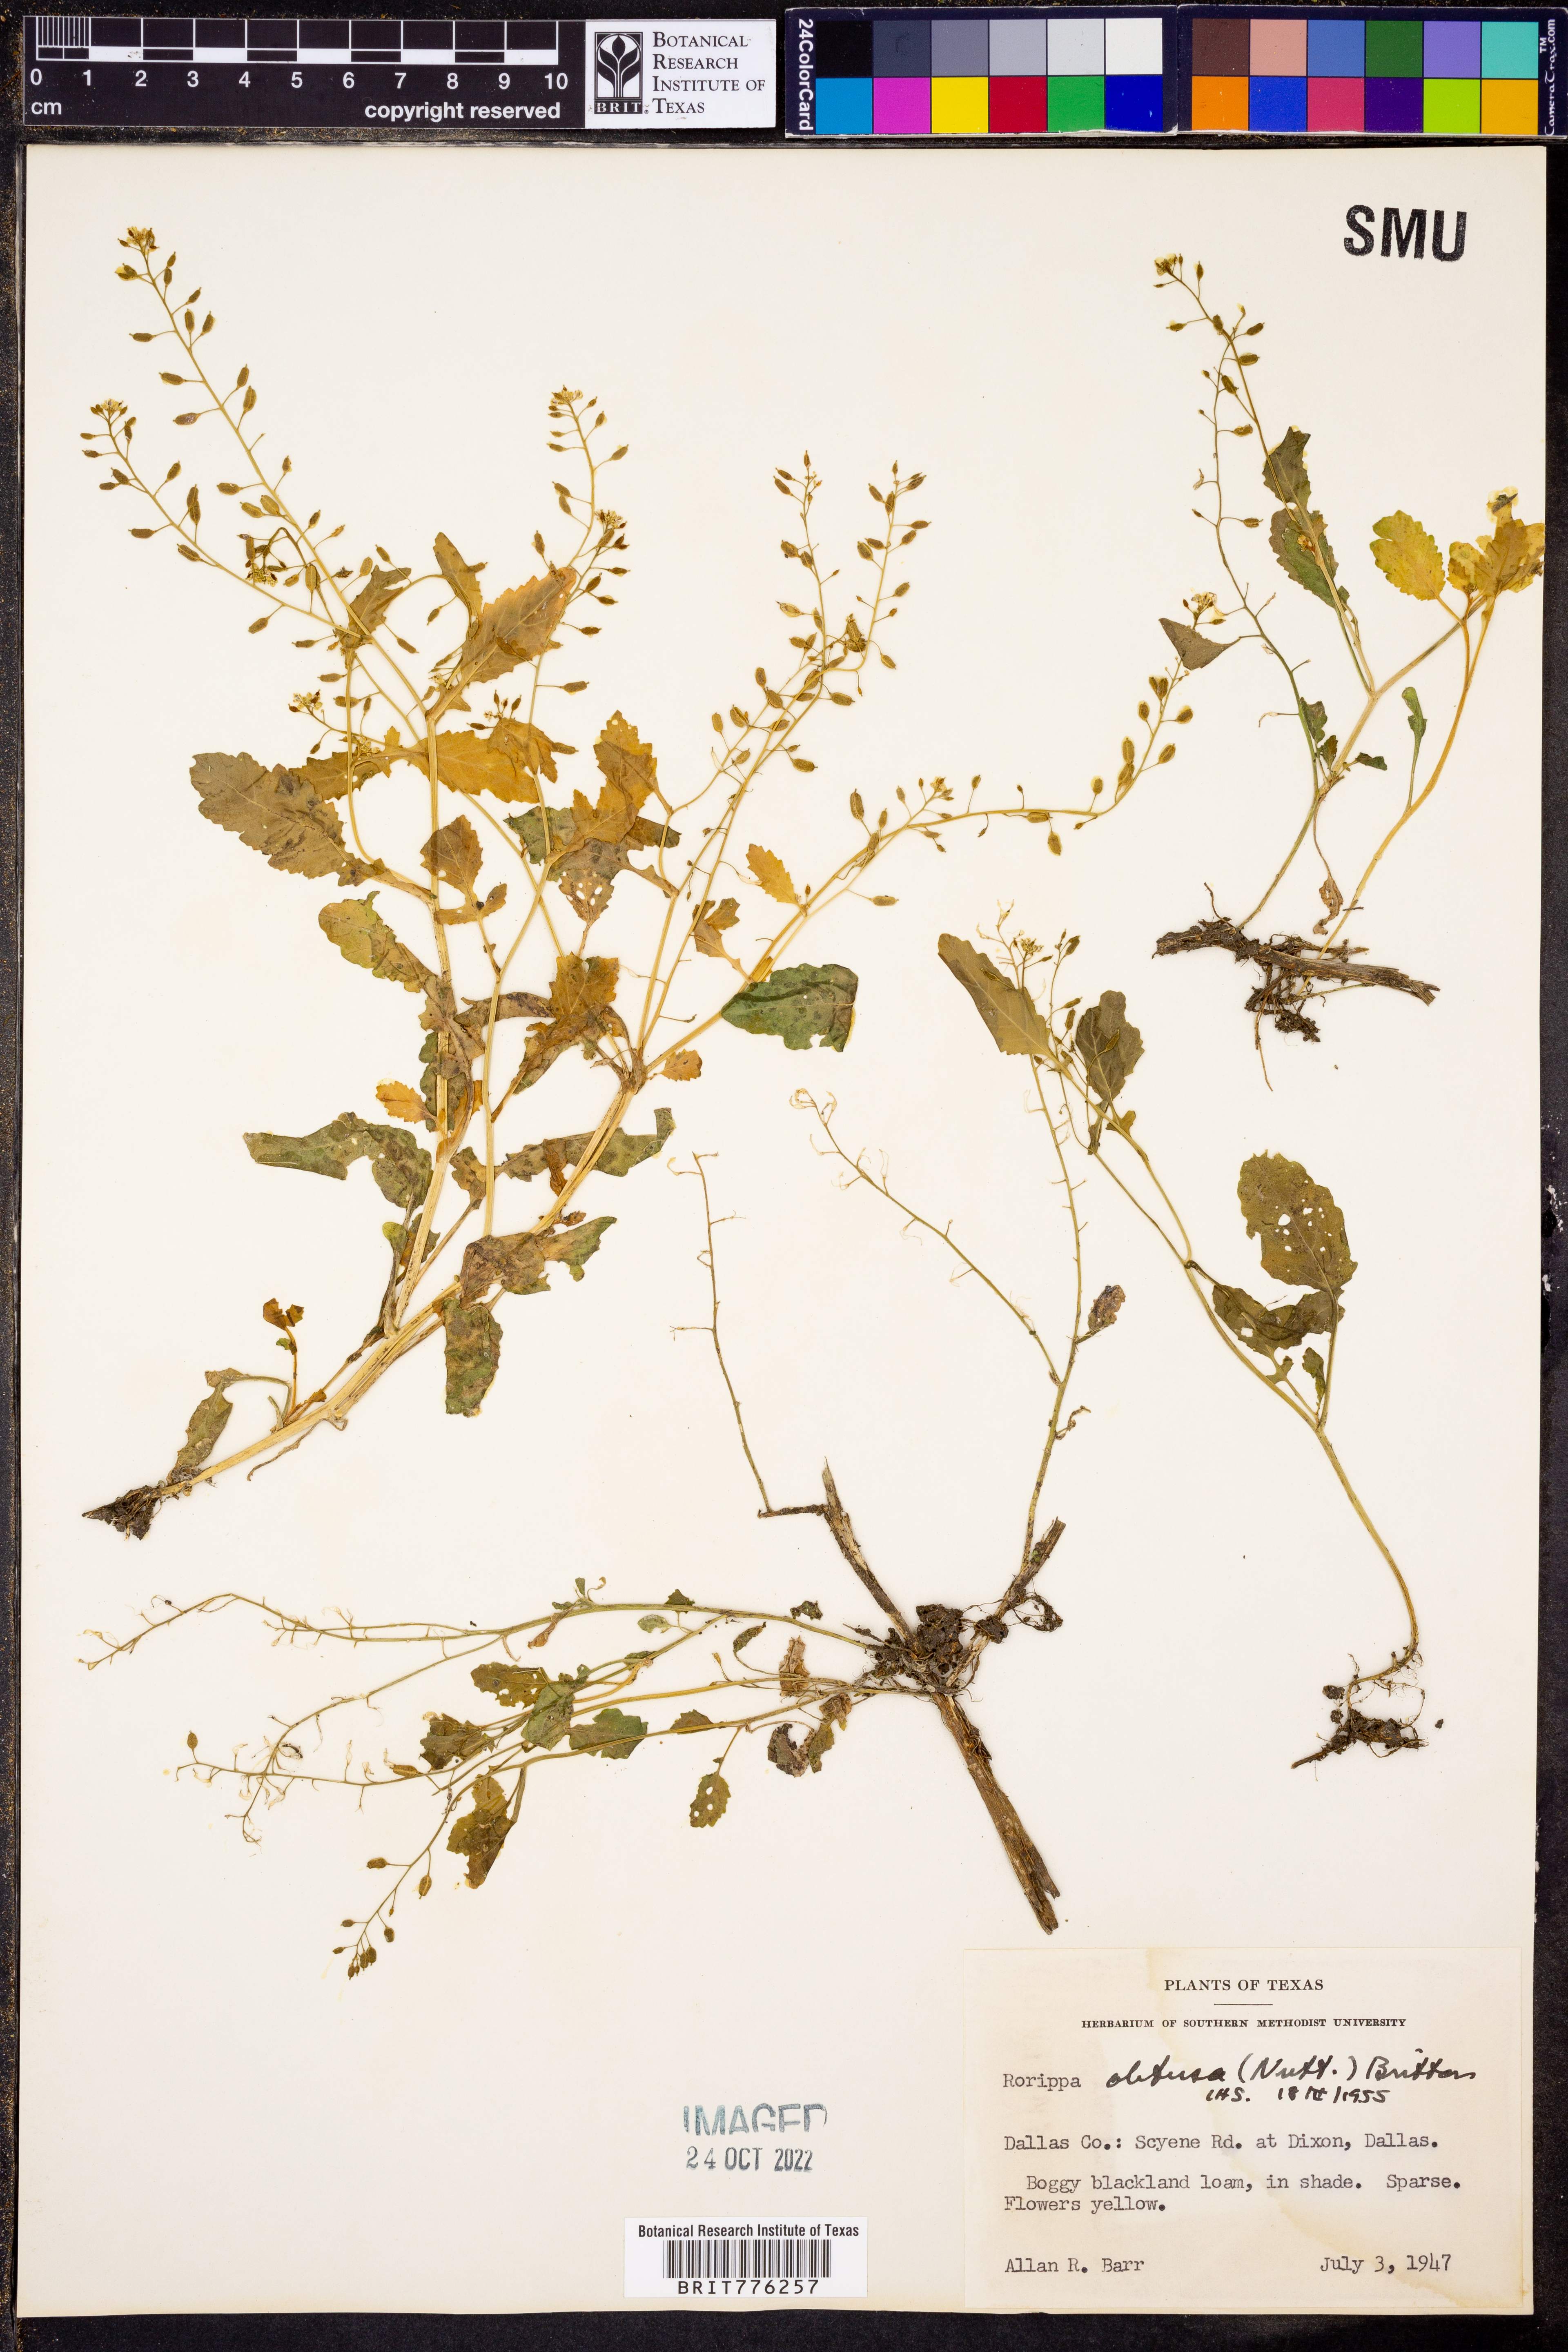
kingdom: Plantae
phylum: Tracheophyta
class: Magnoliopsida
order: Brassicales
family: Brassicaceae
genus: Rorippa
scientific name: Rorippa teres
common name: Southern marsh yellowcress
